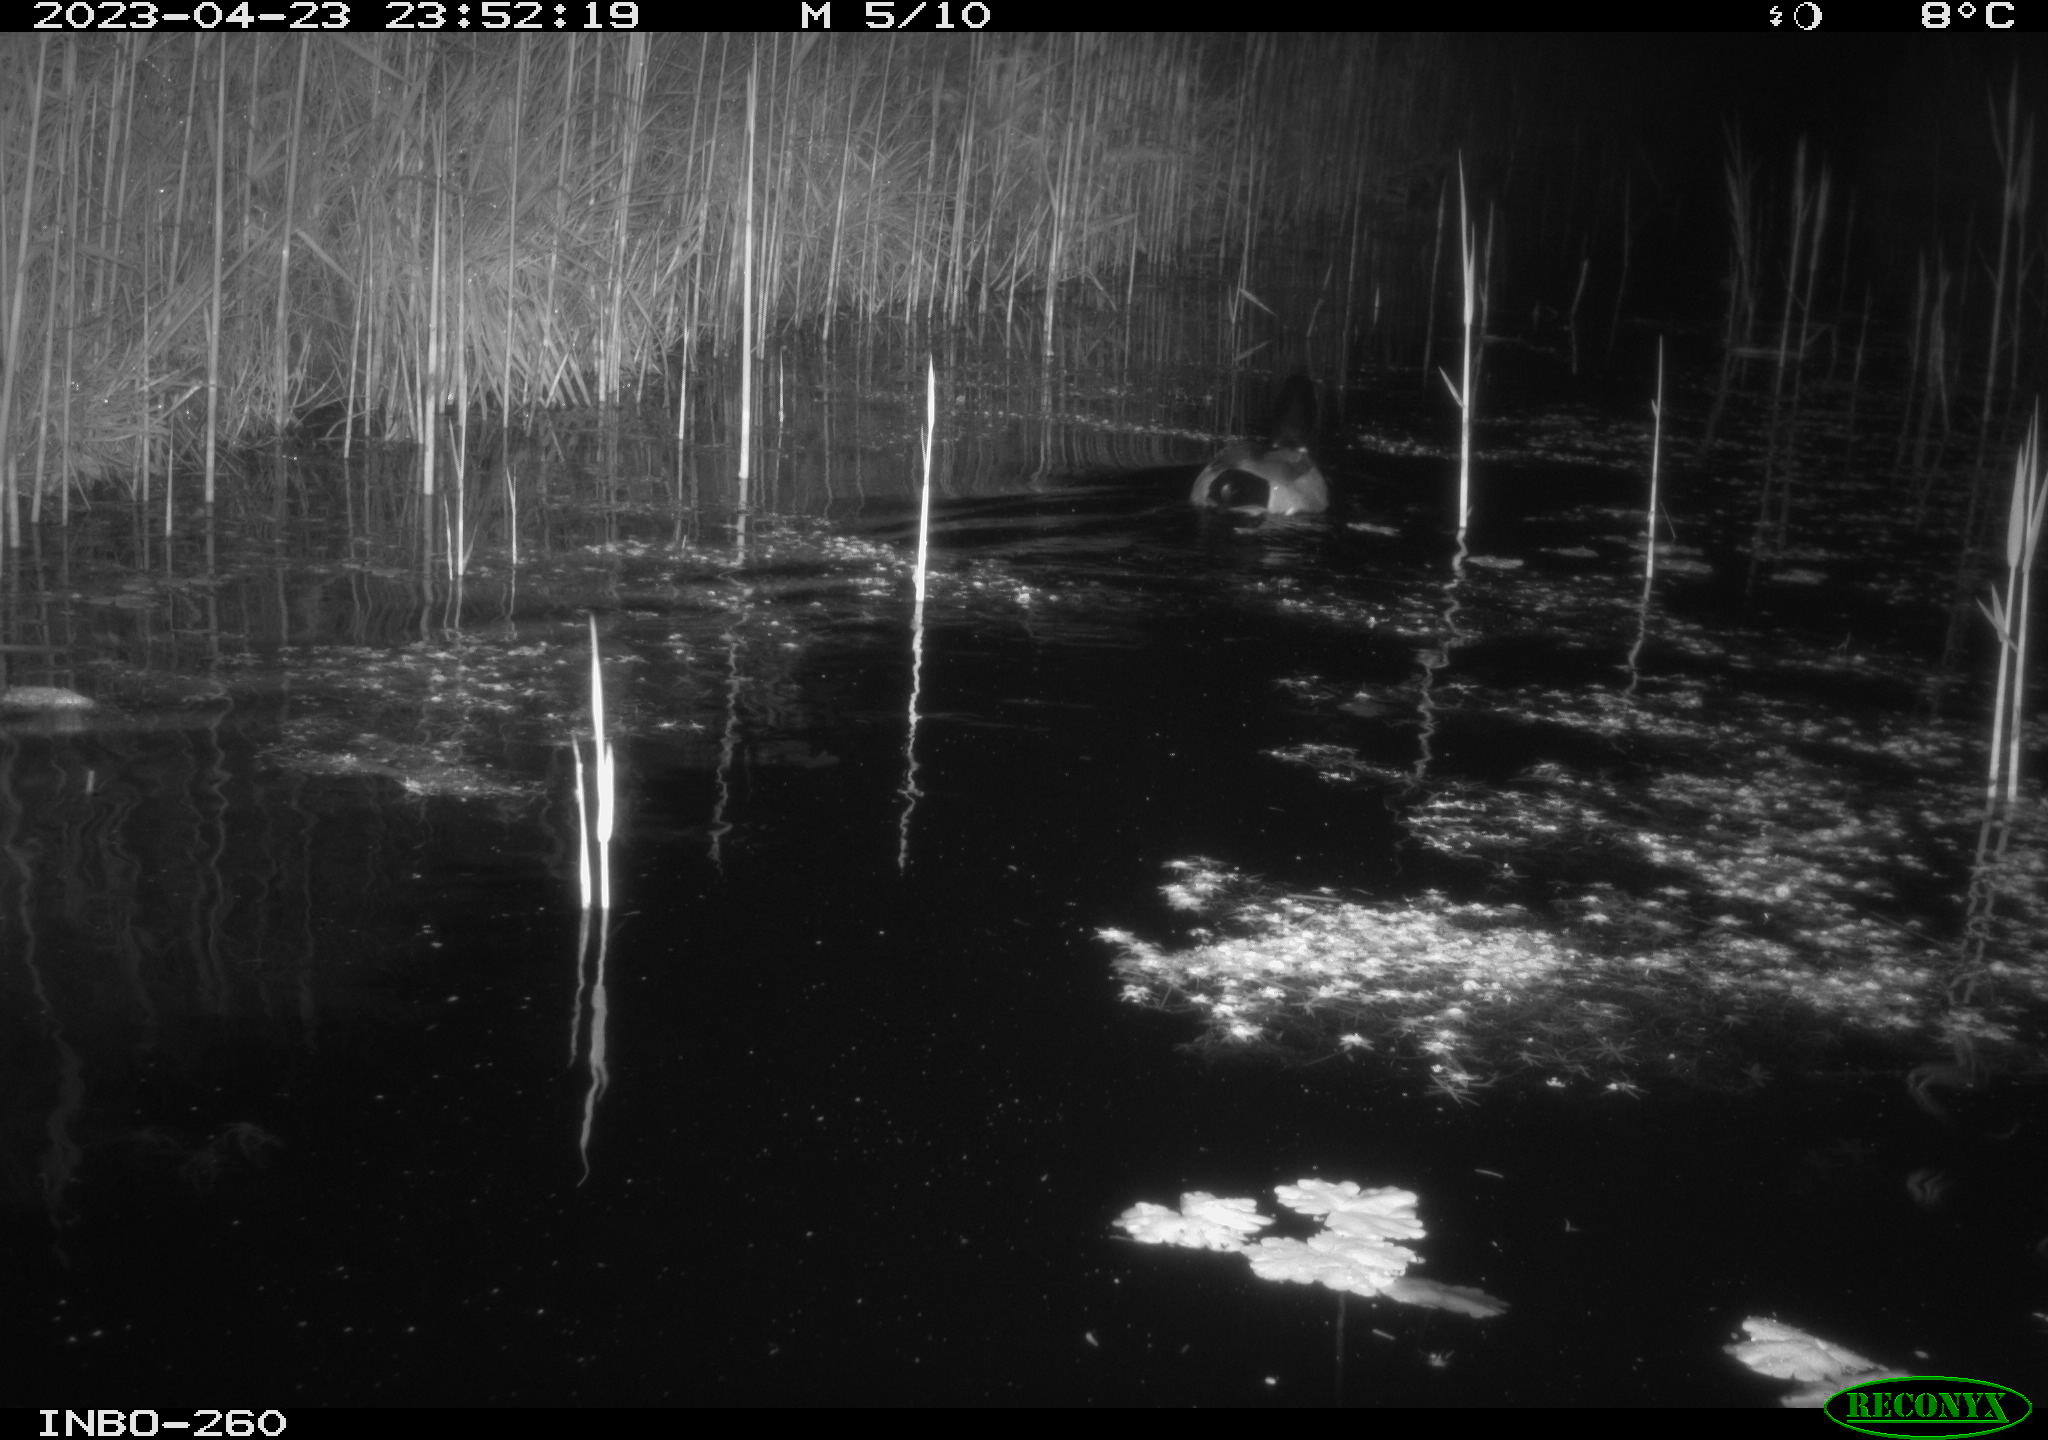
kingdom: Animalia
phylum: Chordata
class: Aves
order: Anseriformes
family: Anatidae
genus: Anas
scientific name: Anas
